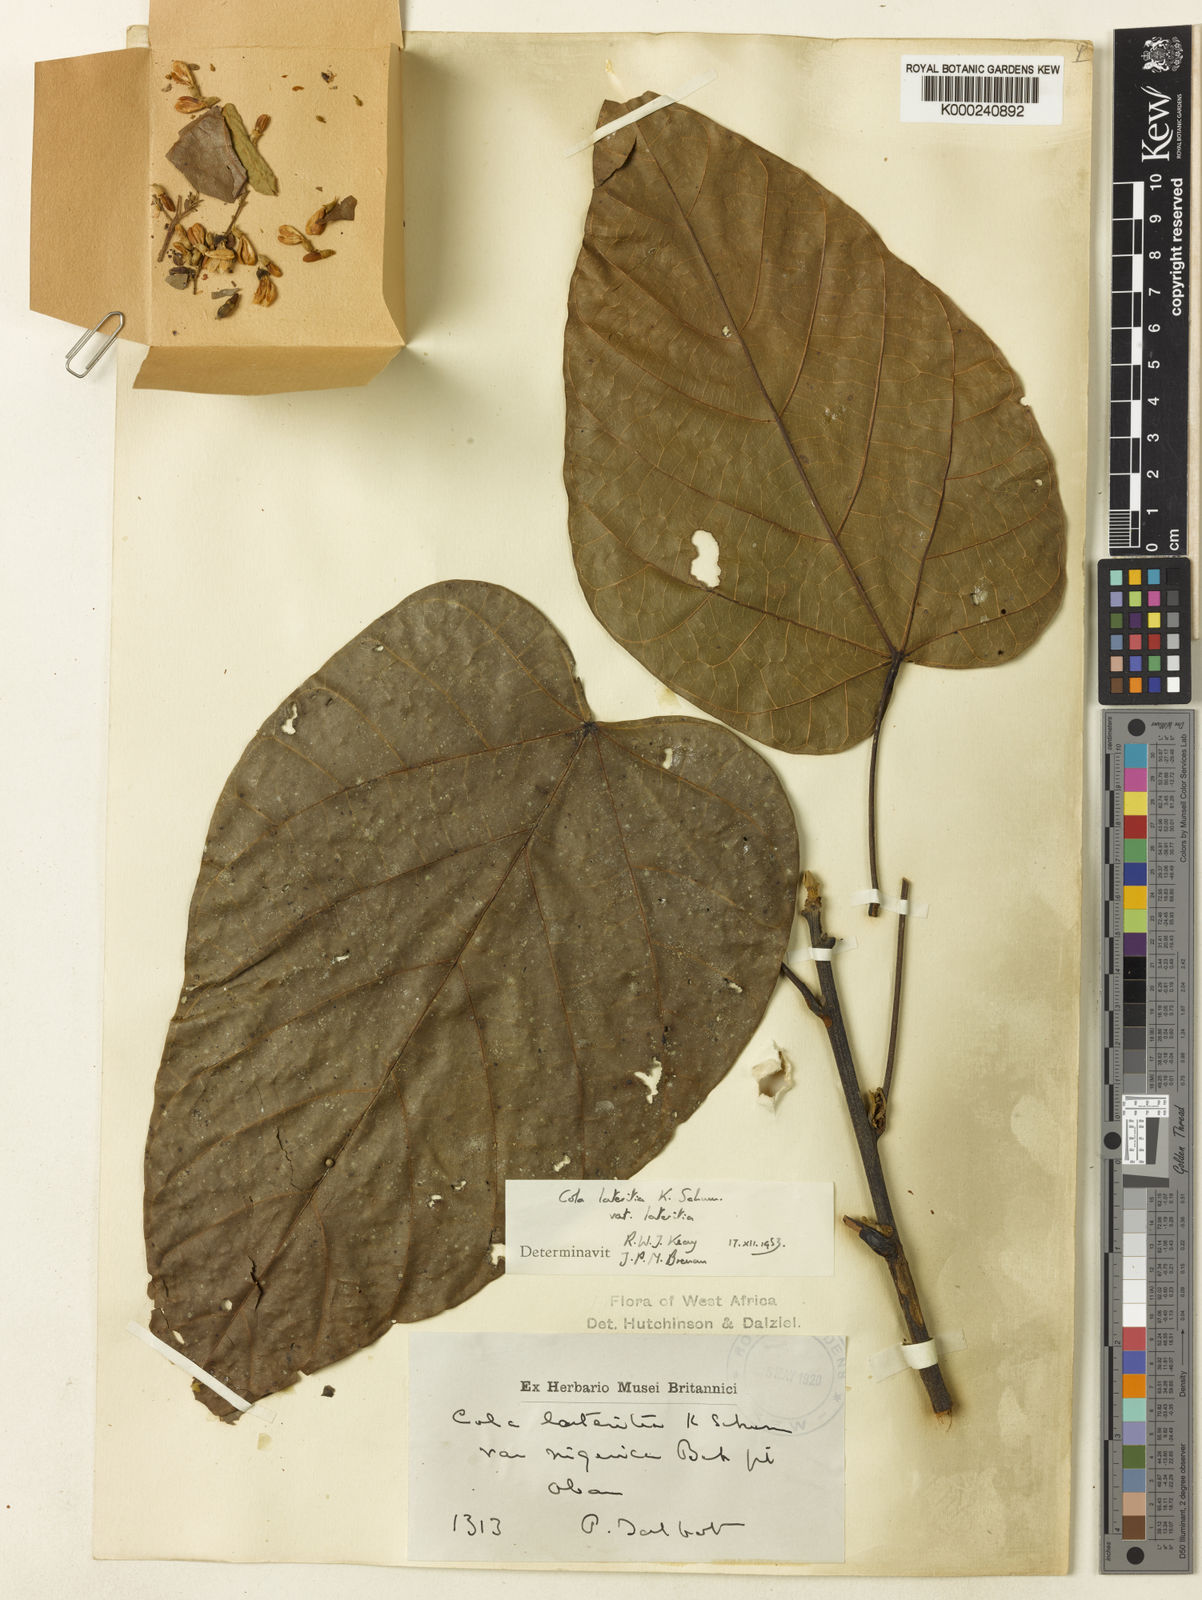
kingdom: Plantae
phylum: Tracheophyta
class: Magnoliopsida
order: Malvales
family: Malvaceae
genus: Cola
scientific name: Cola lateritia
